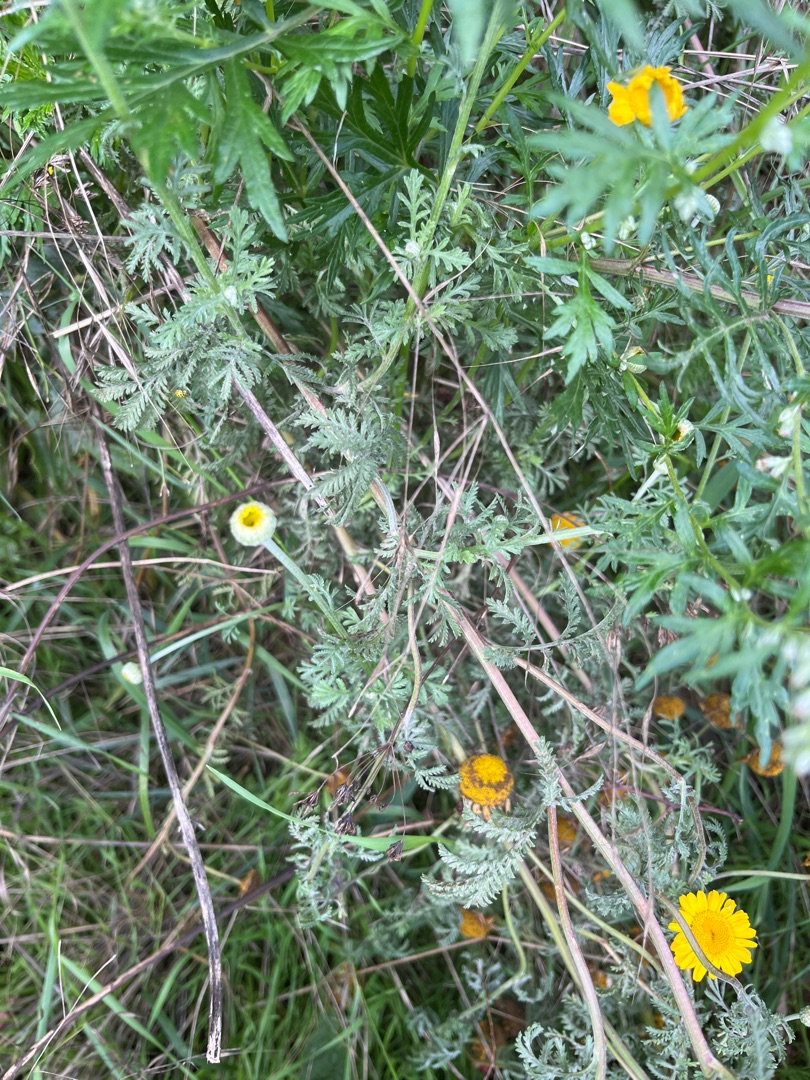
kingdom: Plantae
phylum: Tracheophyta
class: Magnoliopsida
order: Asterales
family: Asteraceae
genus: Cota
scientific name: Cota tinctoria
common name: Farve-gåseurt
